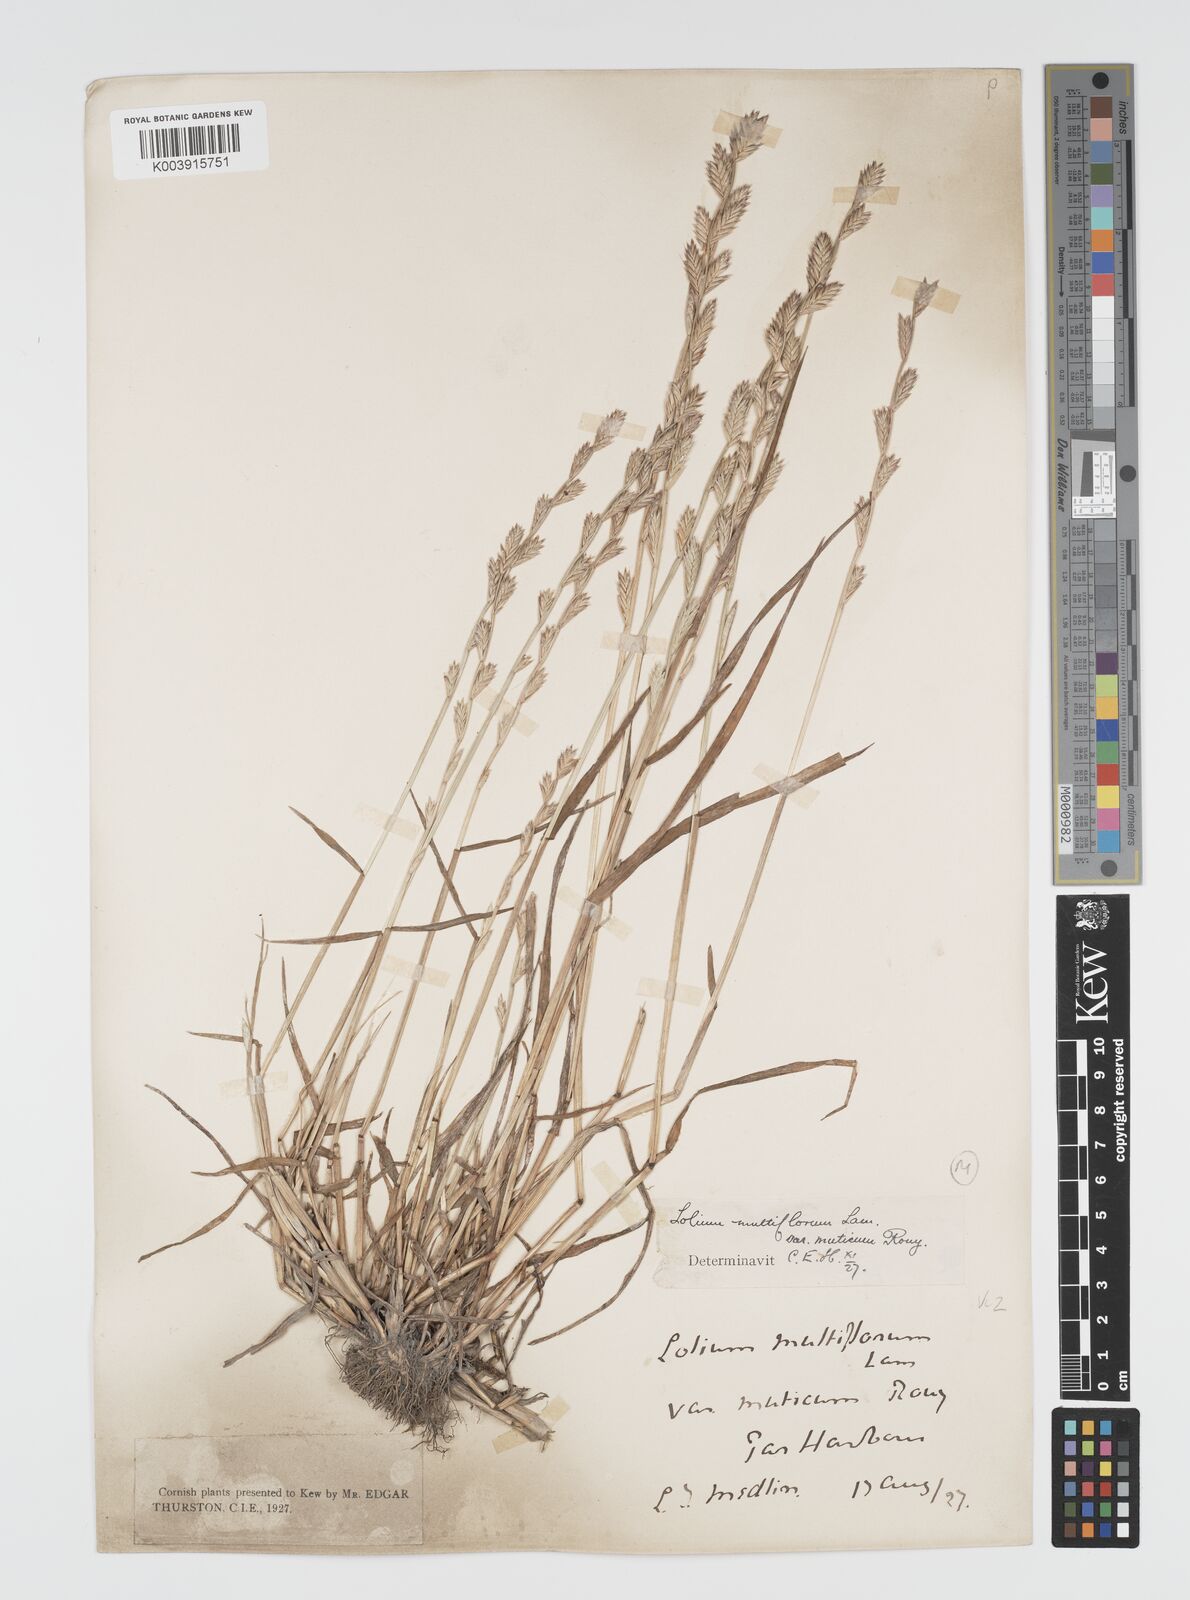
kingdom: Plantae
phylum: Tracheophyta
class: Liliopsida
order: Poales
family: Poaceae
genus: Lolium
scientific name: Lolium multiflorum
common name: Annual ryegrass
